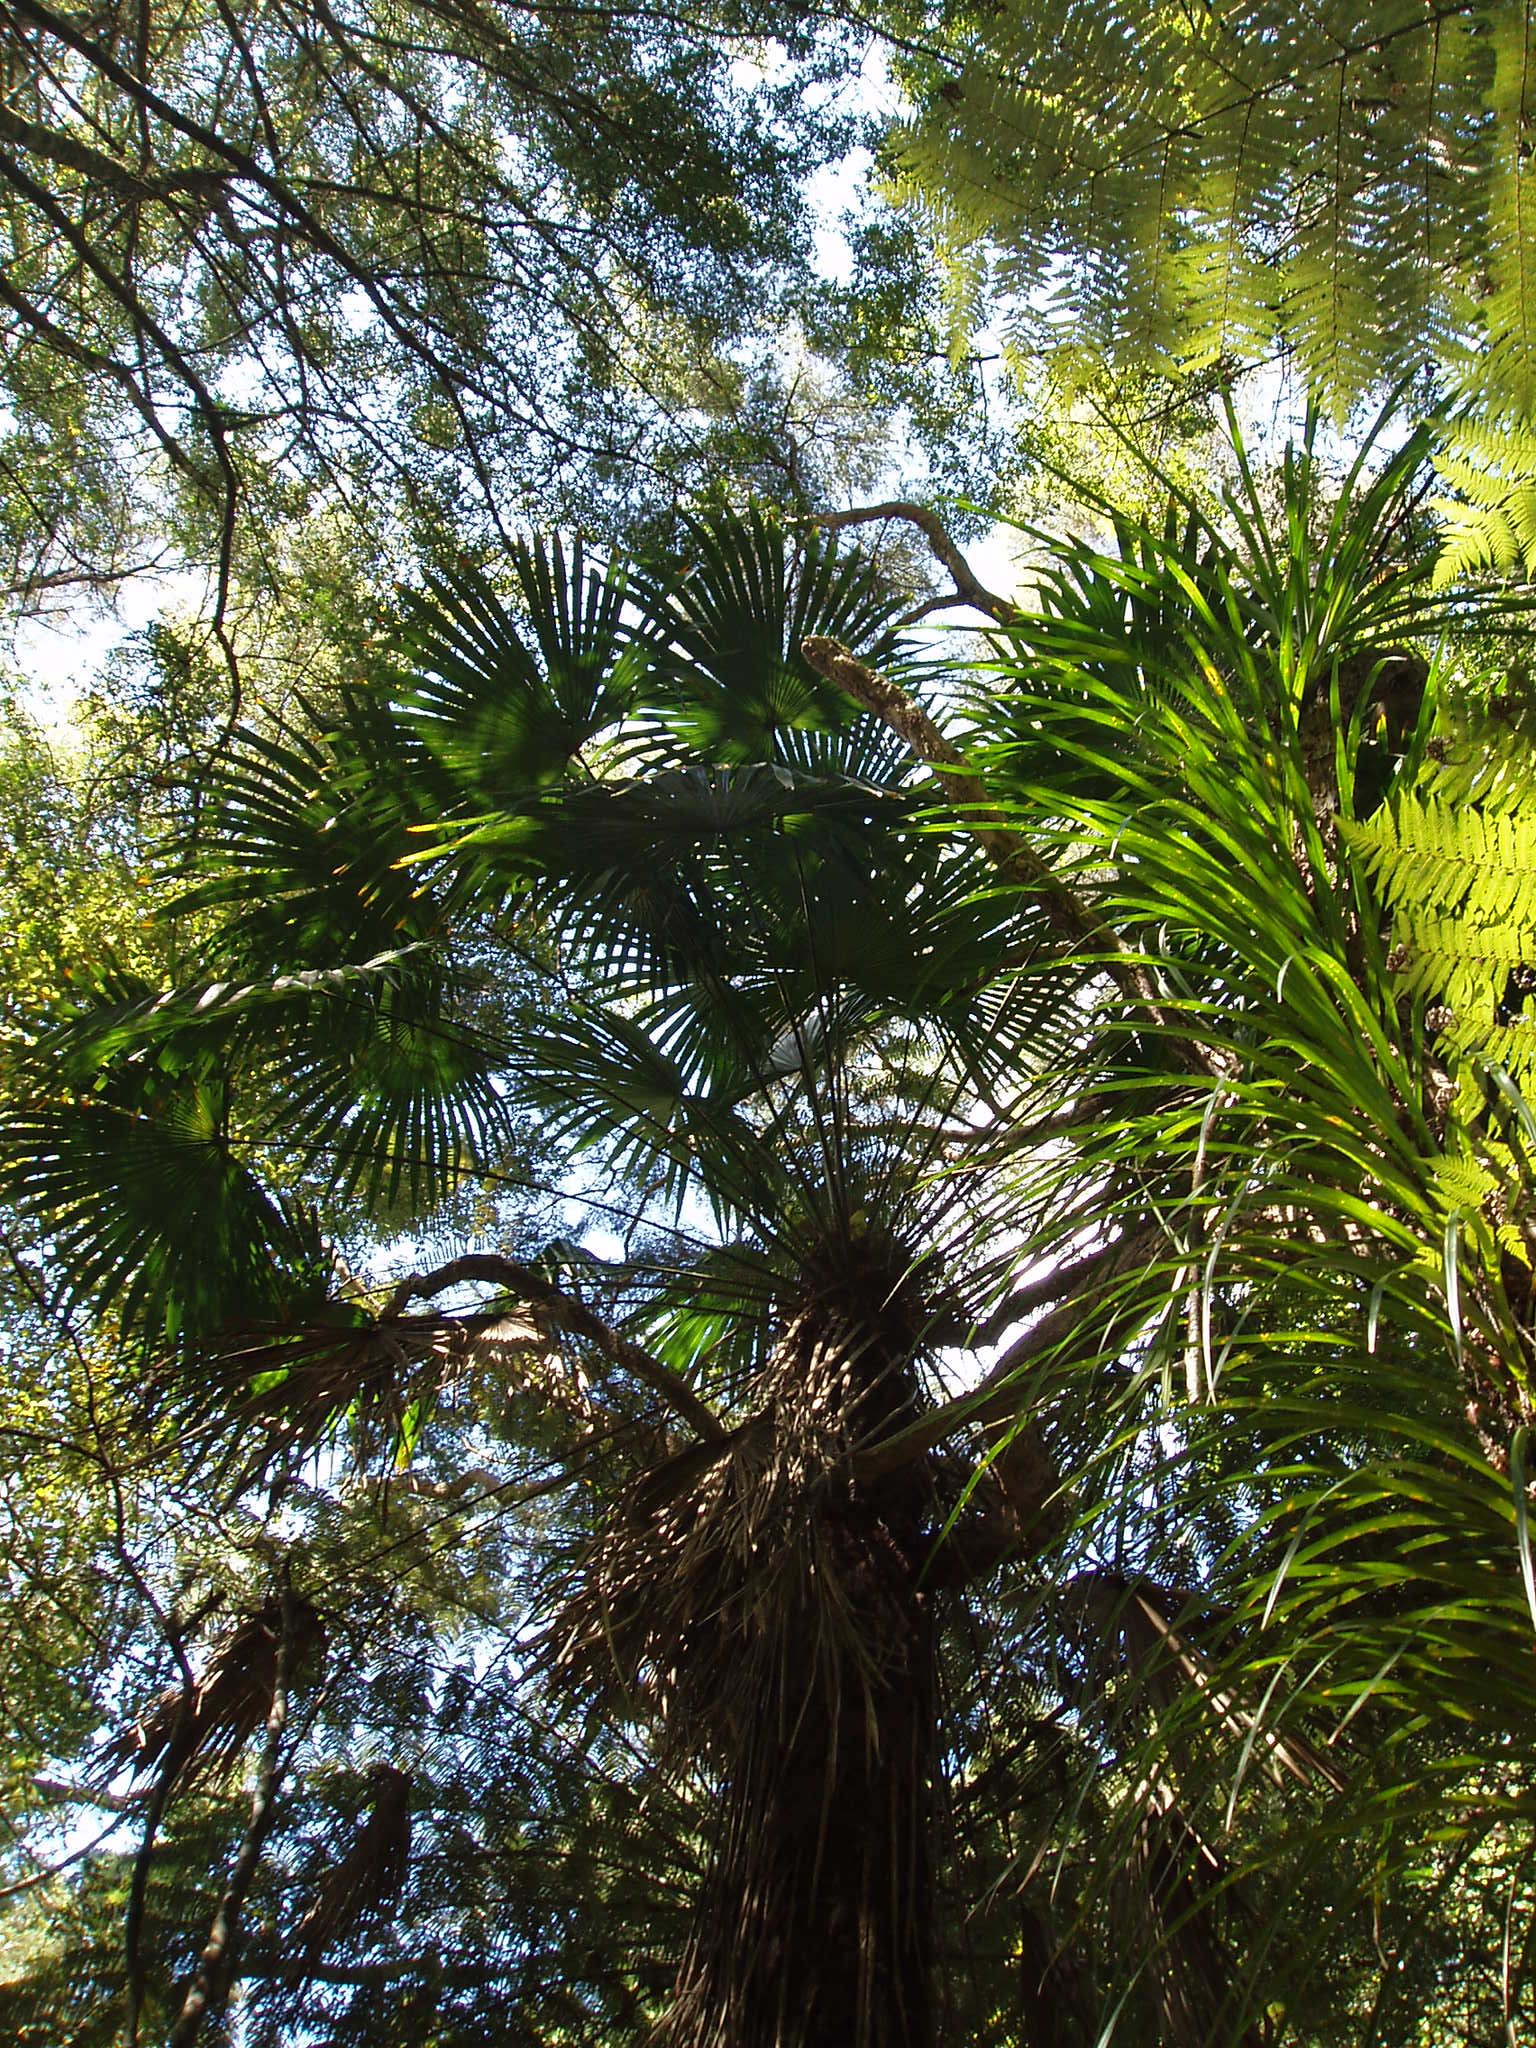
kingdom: Plantae
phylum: Tracheophyta
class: Liliopsida
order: Arecales
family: Arecaceae
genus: Trachycarpus
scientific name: Trachycarpus fortunei
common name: Chusan palm
